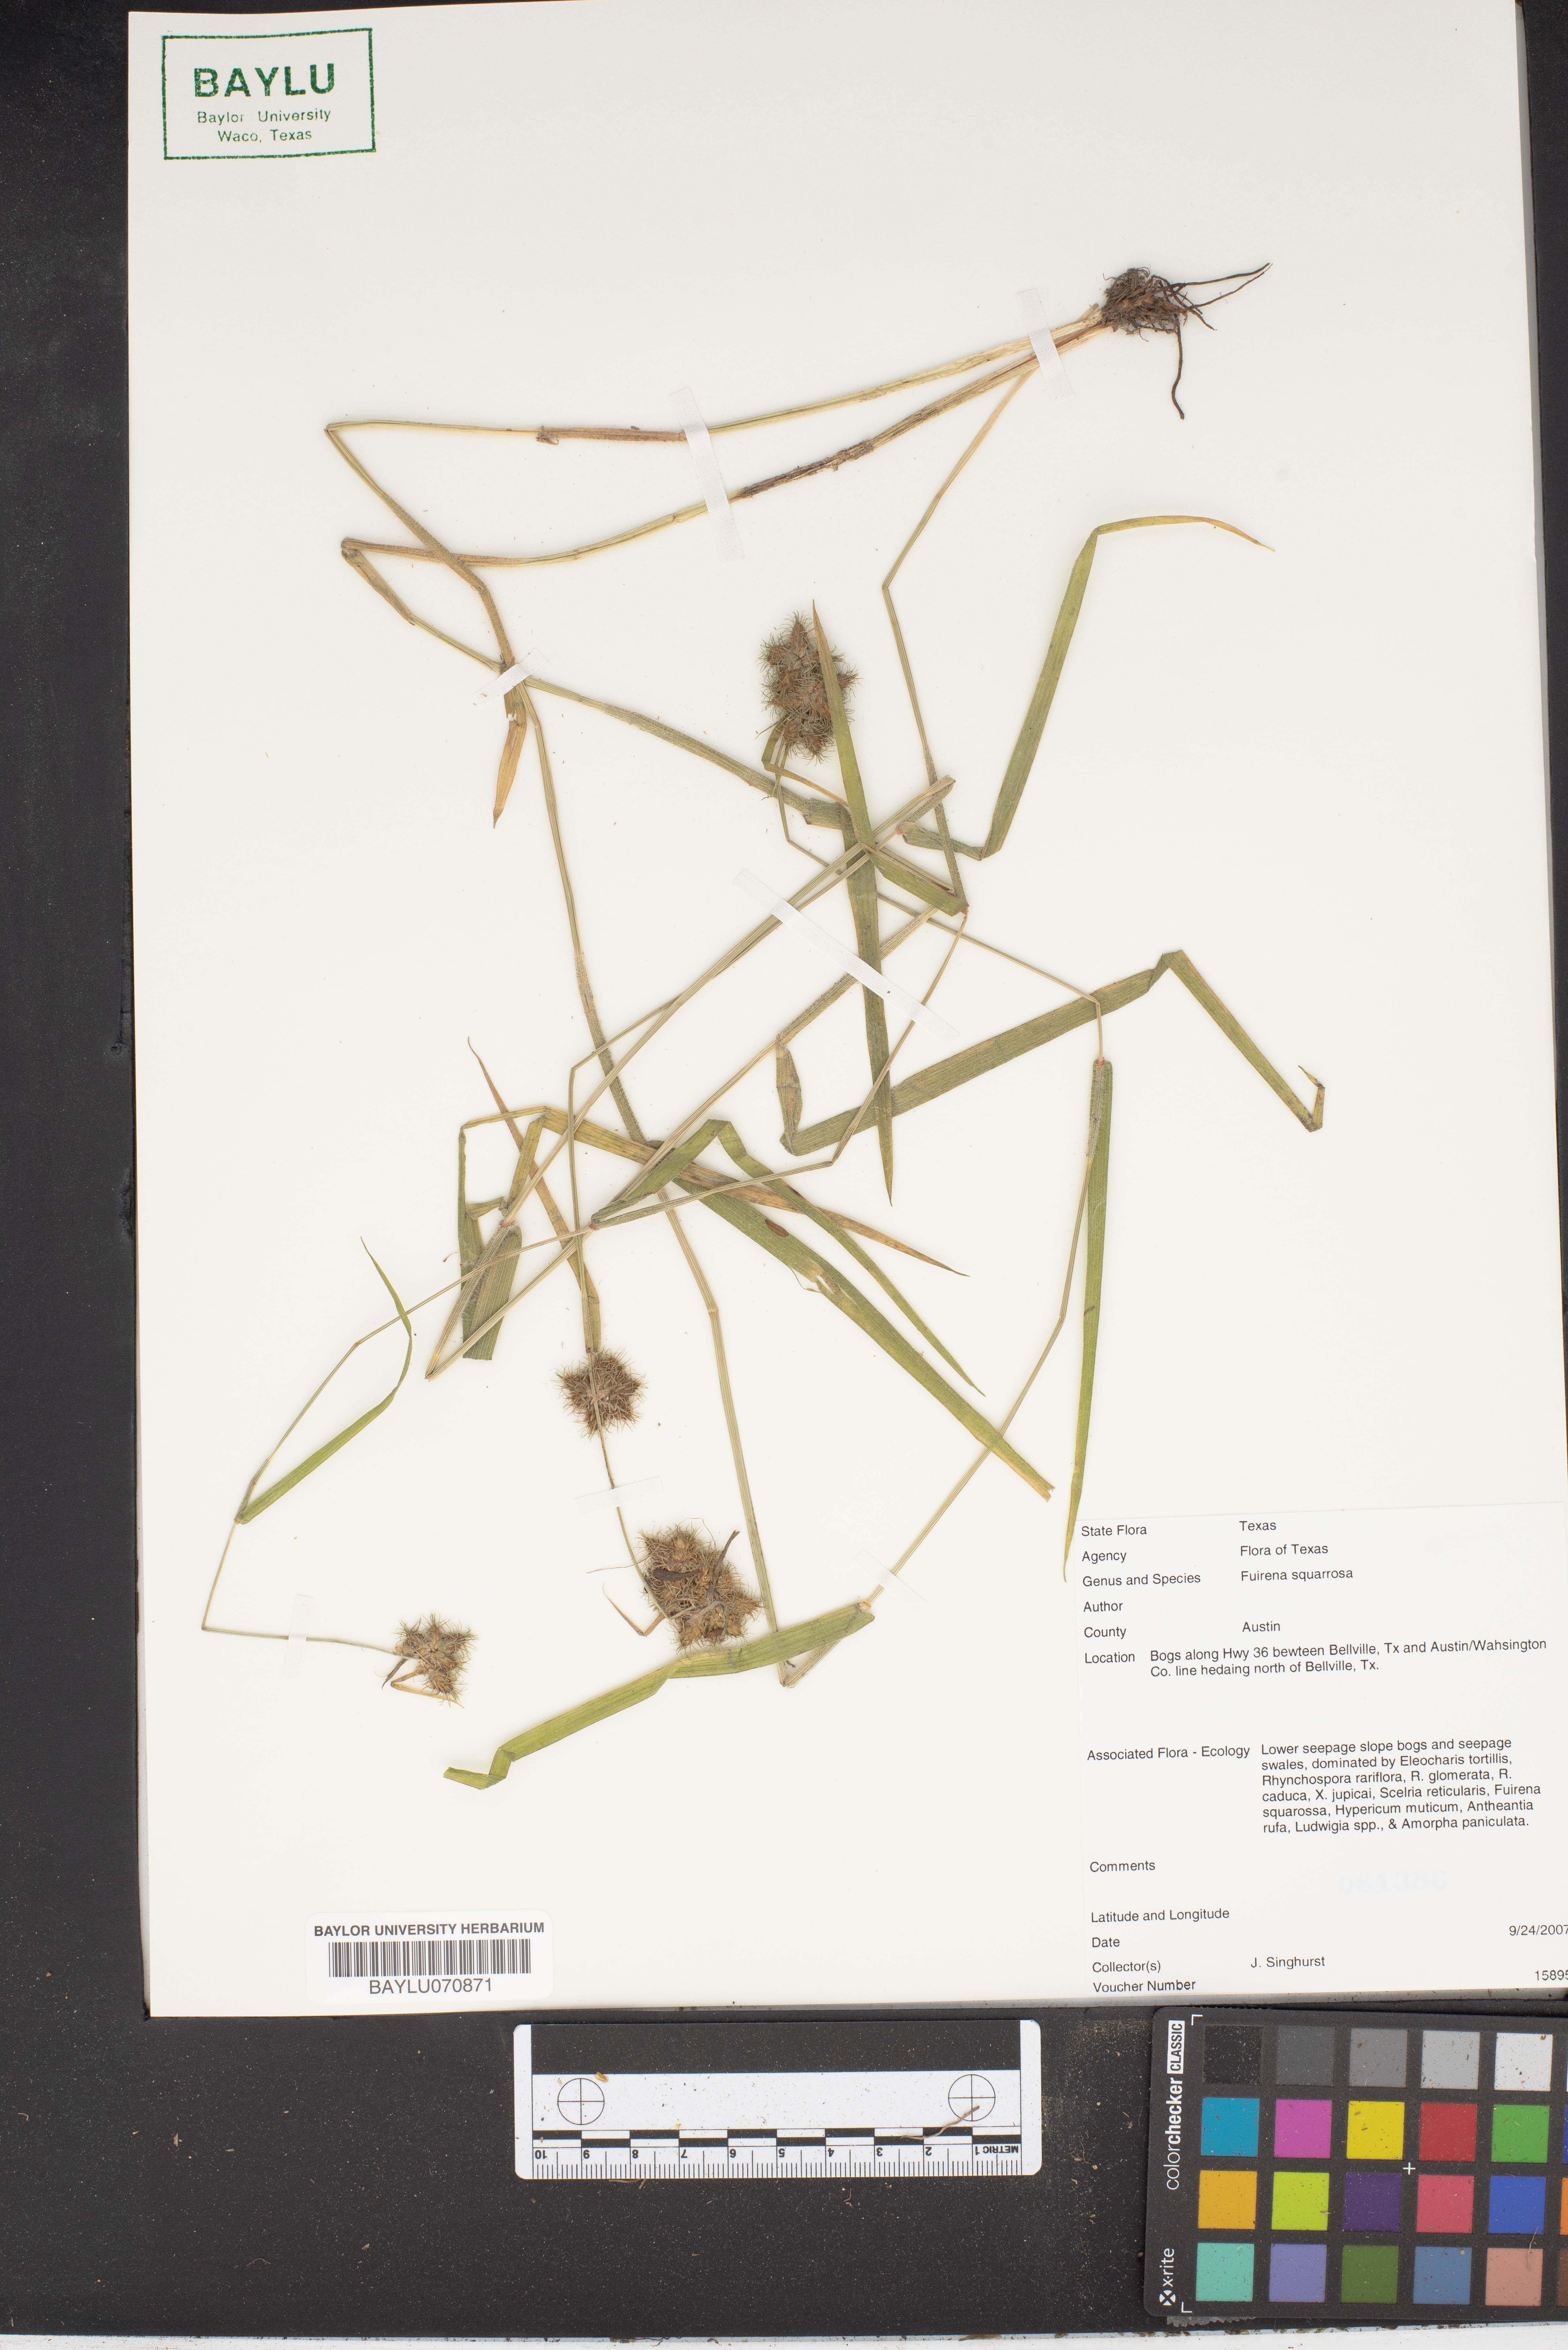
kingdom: Plantae
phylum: Tracheophyta
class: Liliopsida
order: Poales
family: Cyperaceae
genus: Fuirena
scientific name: Fuirena squarrosa
